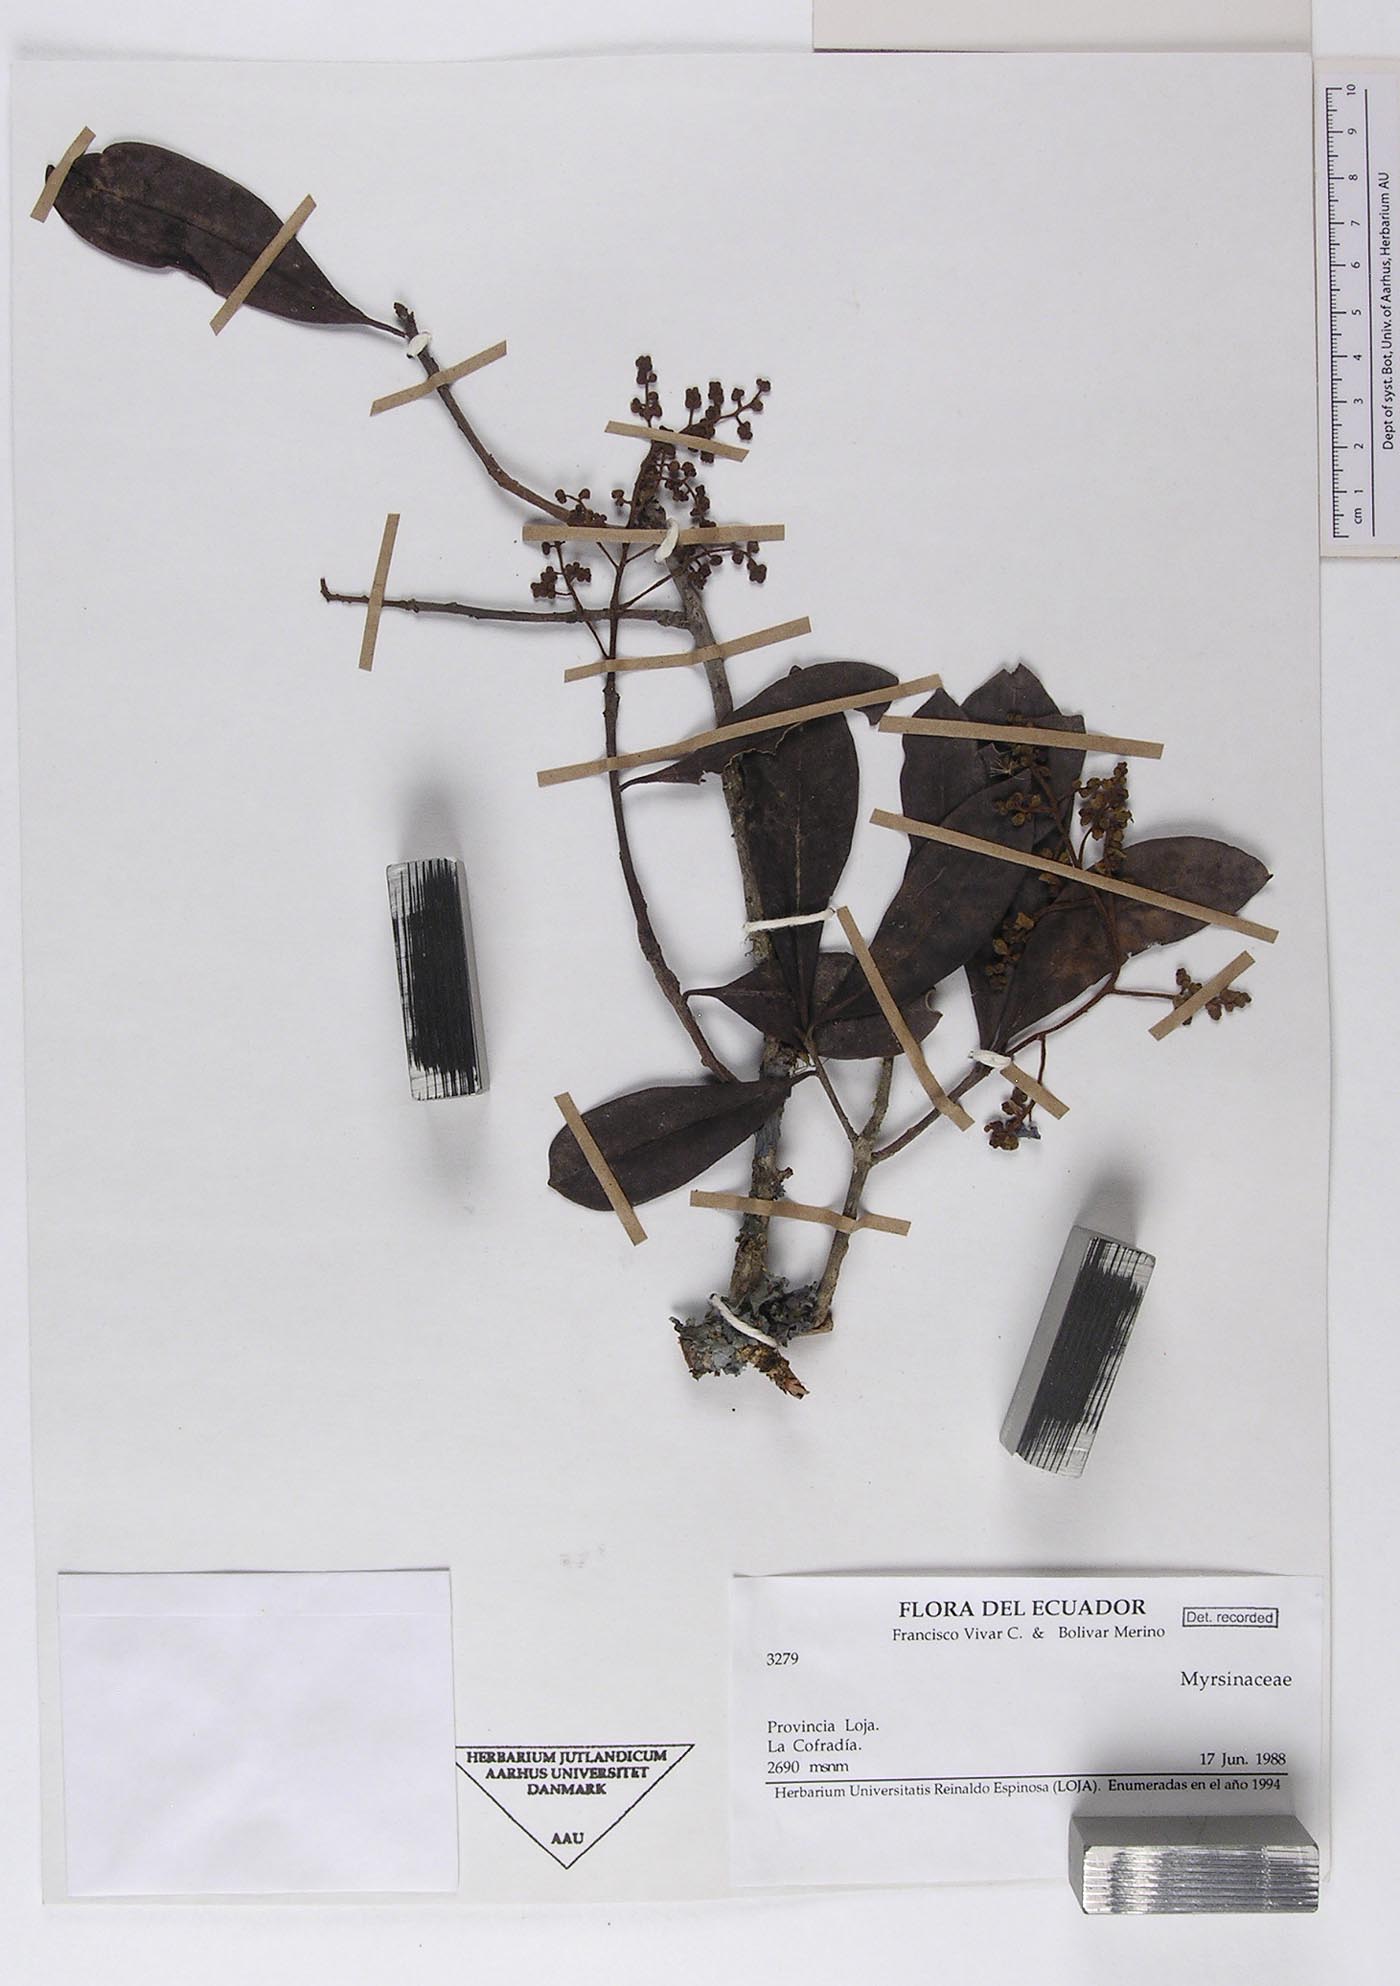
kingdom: Plantae
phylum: Tracheophyta
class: Magnoliopsida
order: Ericales
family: Primulaceae
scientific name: Primulaceae
